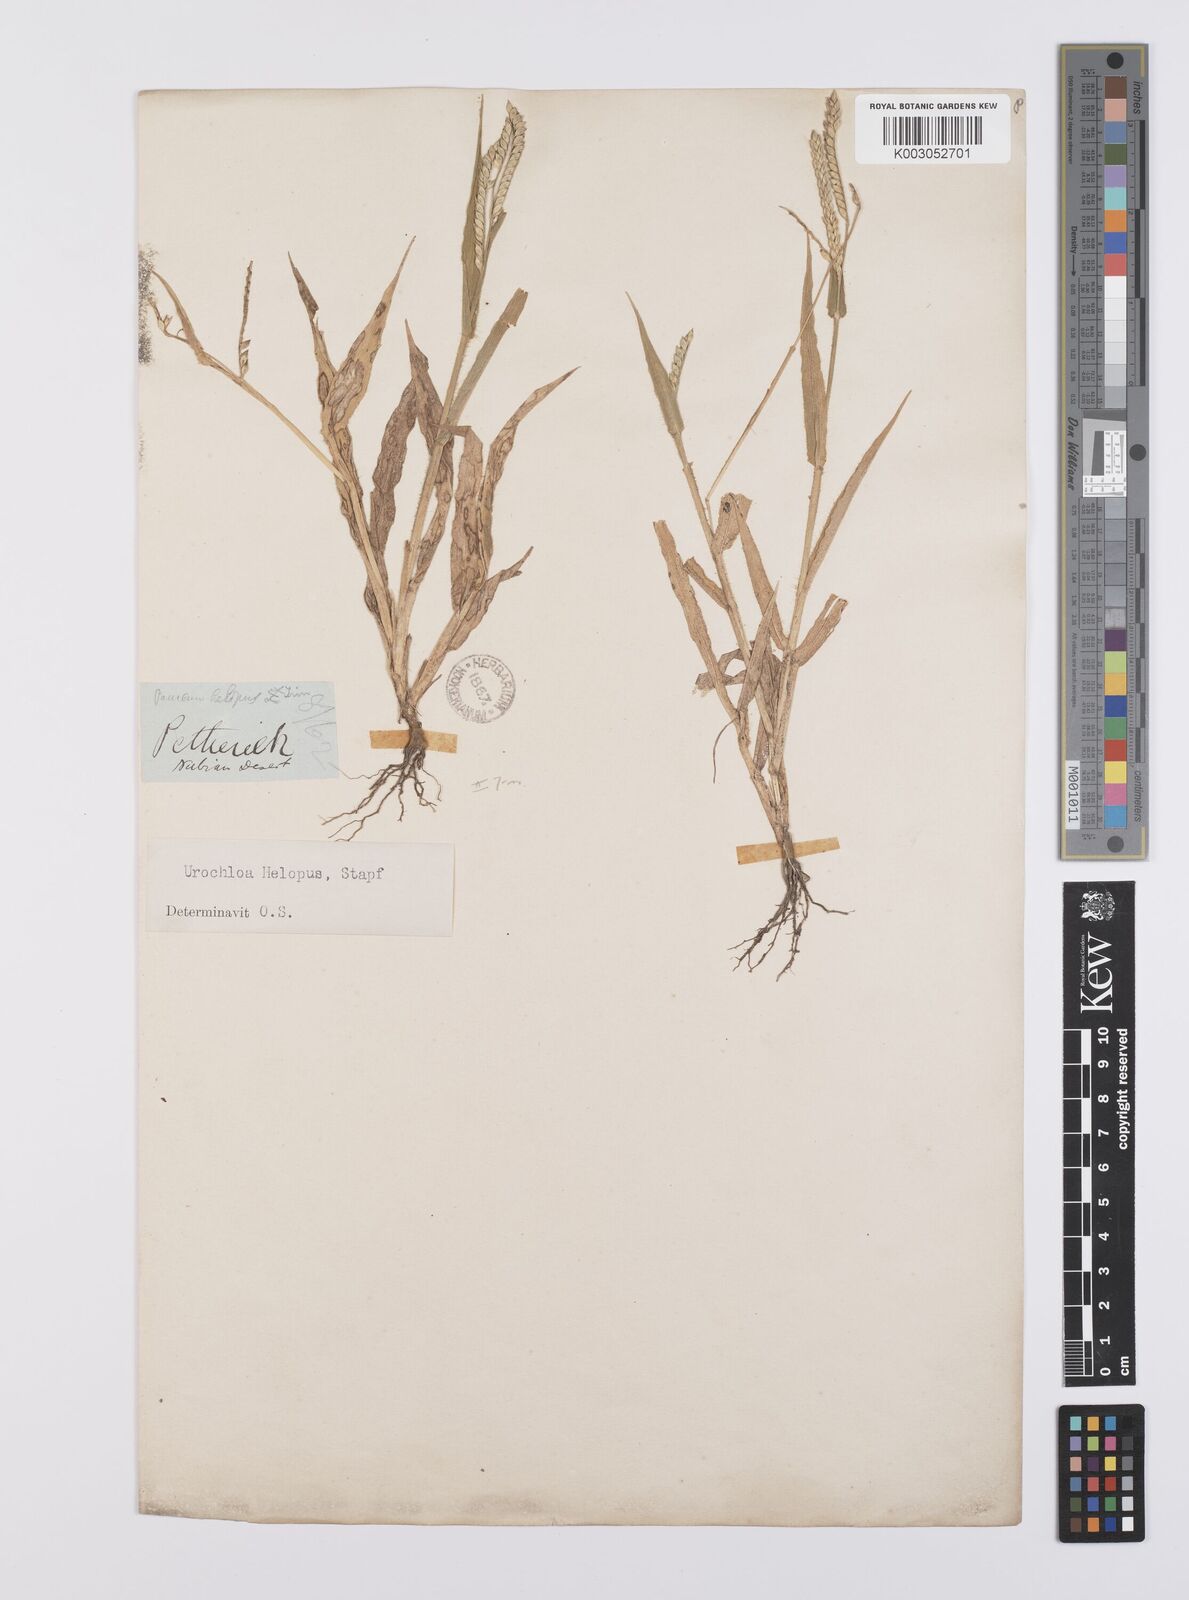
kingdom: Plantae
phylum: Tracheophyta
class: Liliopsida
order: Poales
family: Poaceae
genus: Urochloa
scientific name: Urochloa panicoides
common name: Sharp-flowered signal-grass
